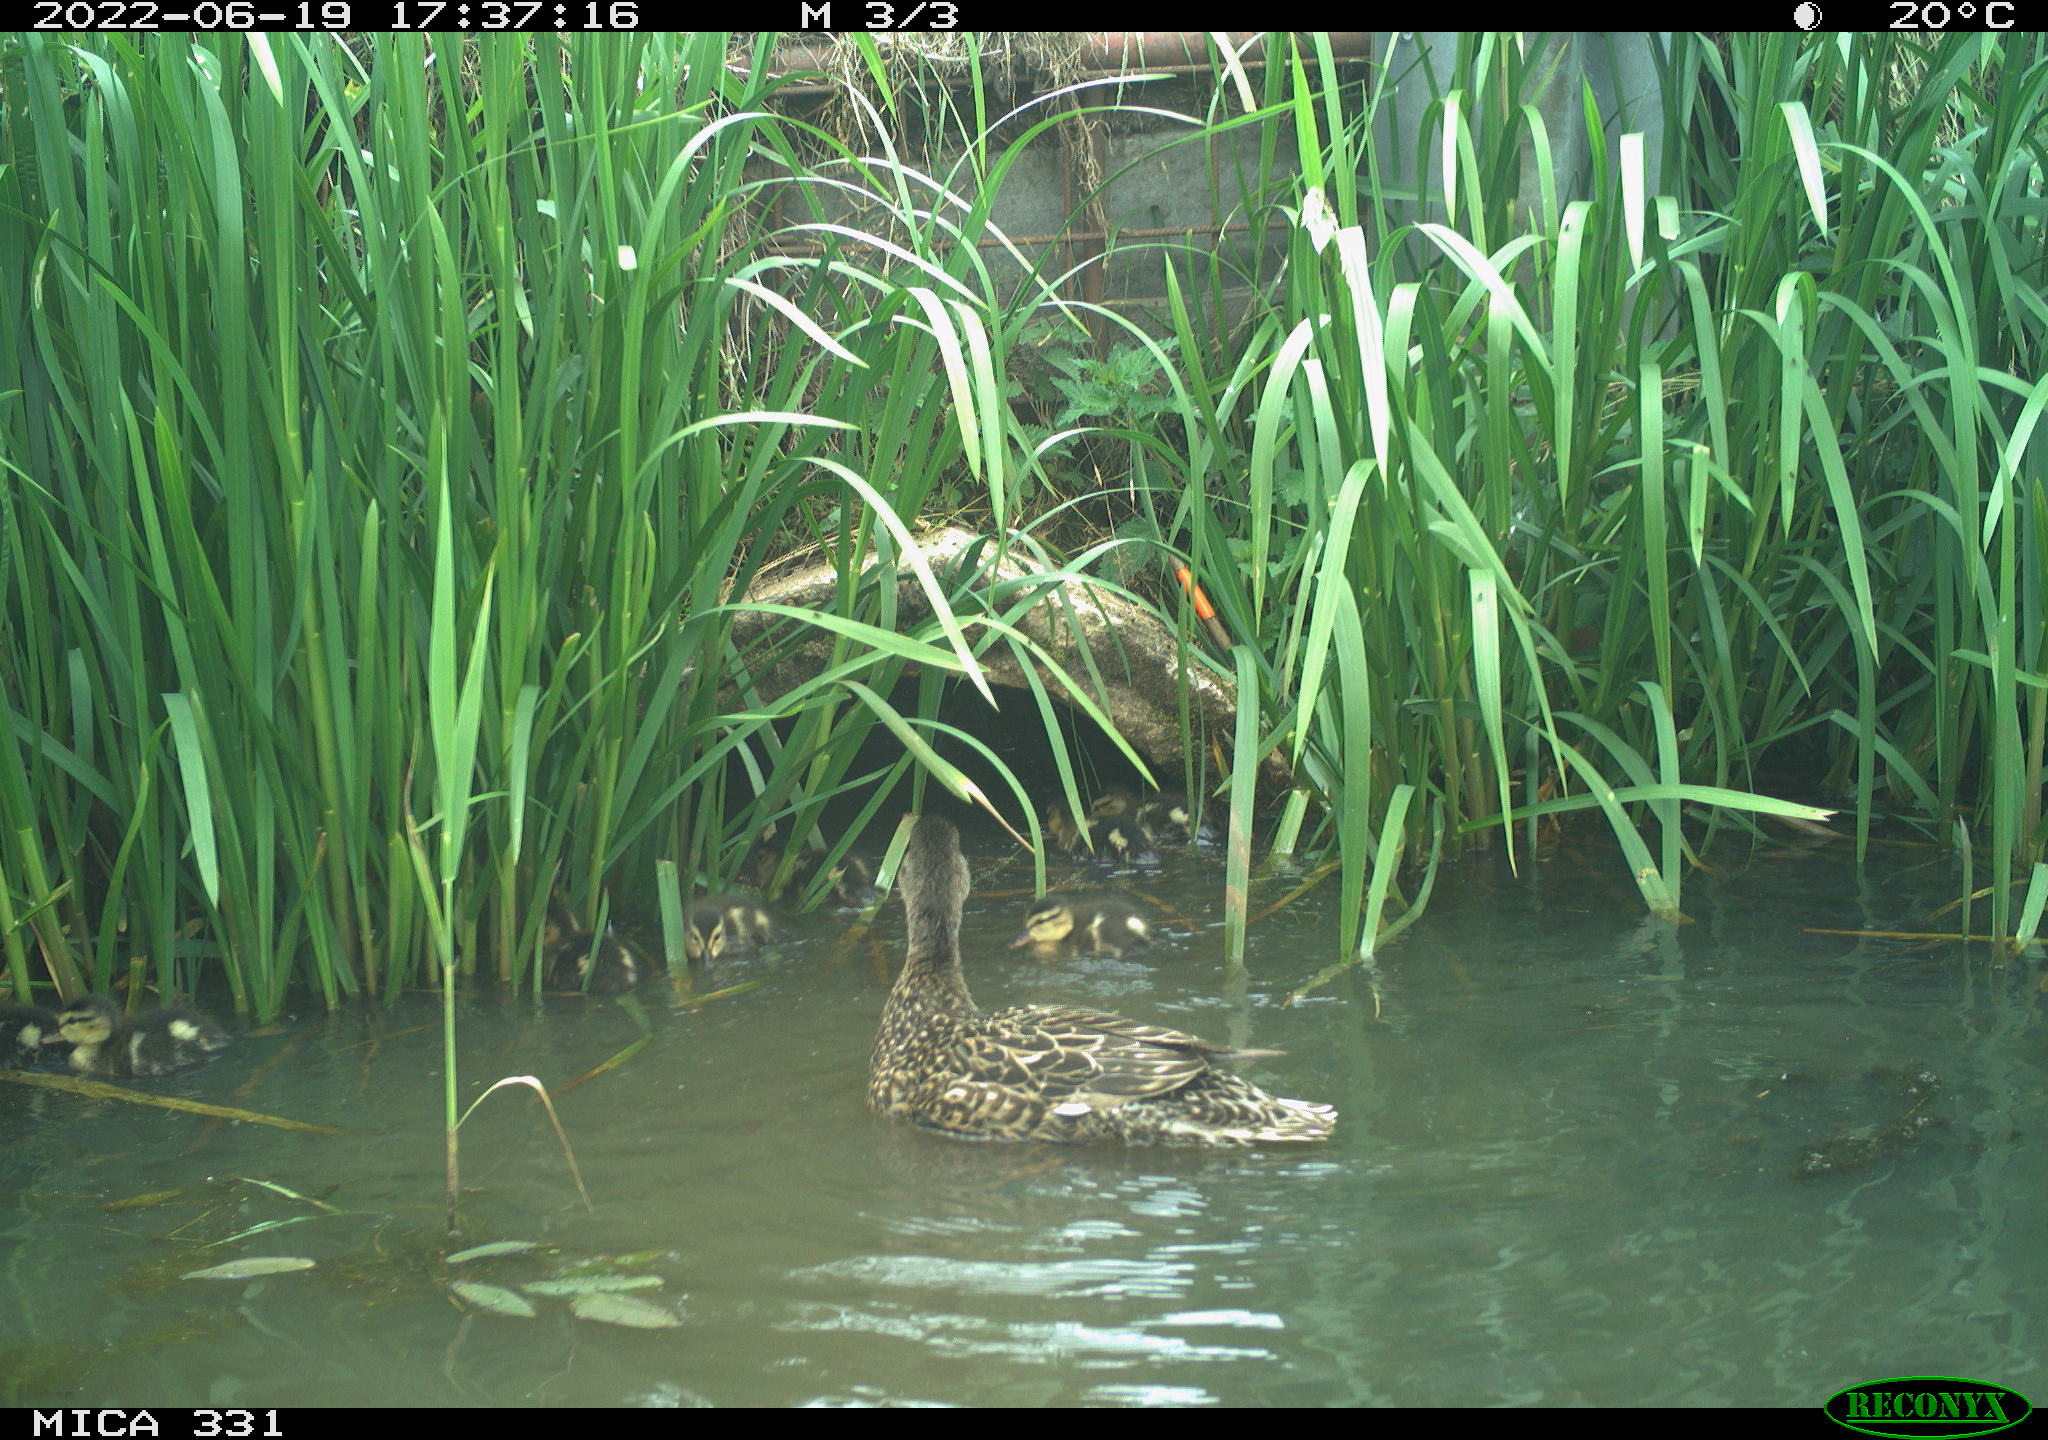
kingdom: Animalia
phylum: Chordata
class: Aves
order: Anseriformes
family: Anatidae
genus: Anas
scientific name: Anas platyrhynchos
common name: Mallard
